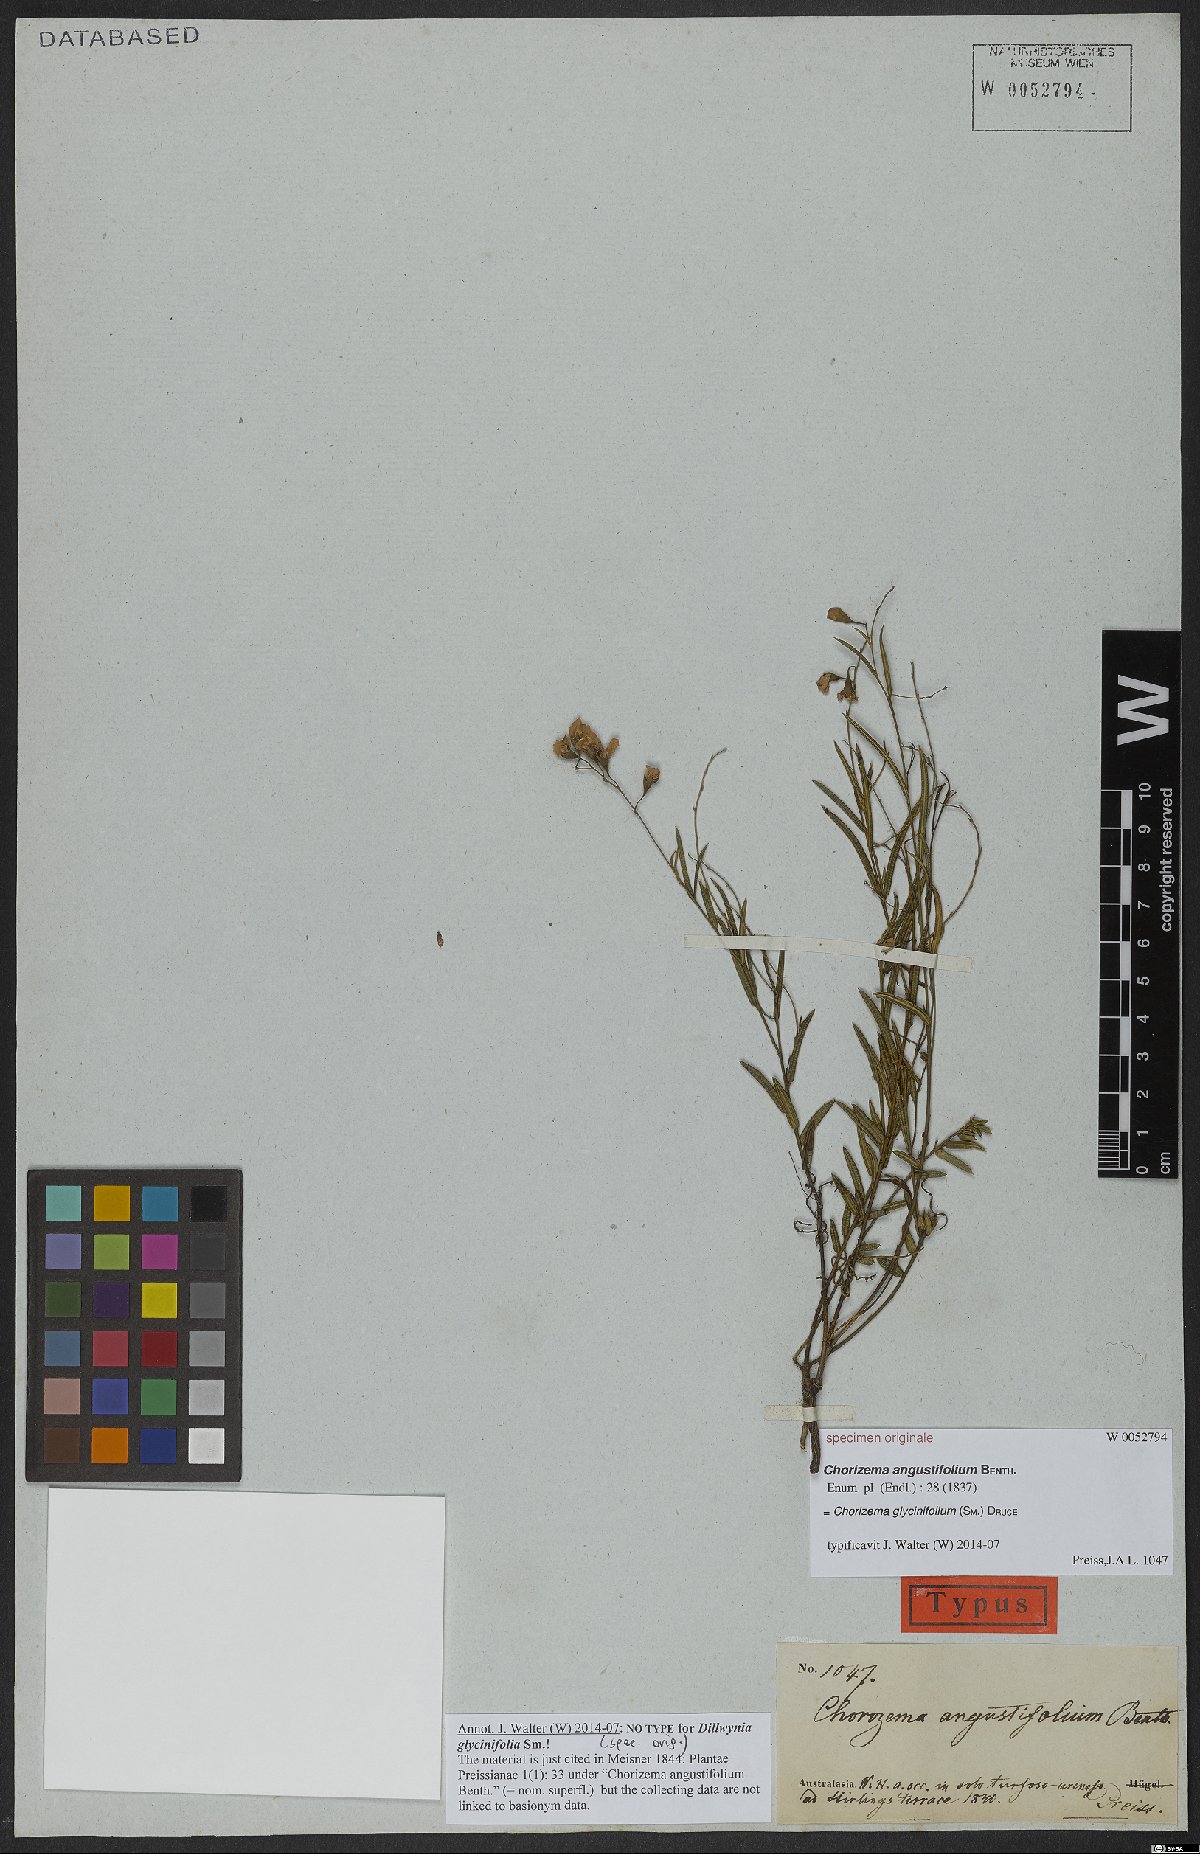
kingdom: Plantae
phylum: Tracheophyta
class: Magnoliopsida
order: Fabales
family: Fabaceae
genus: Chorizema
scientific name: Chorizema glycinifolium
